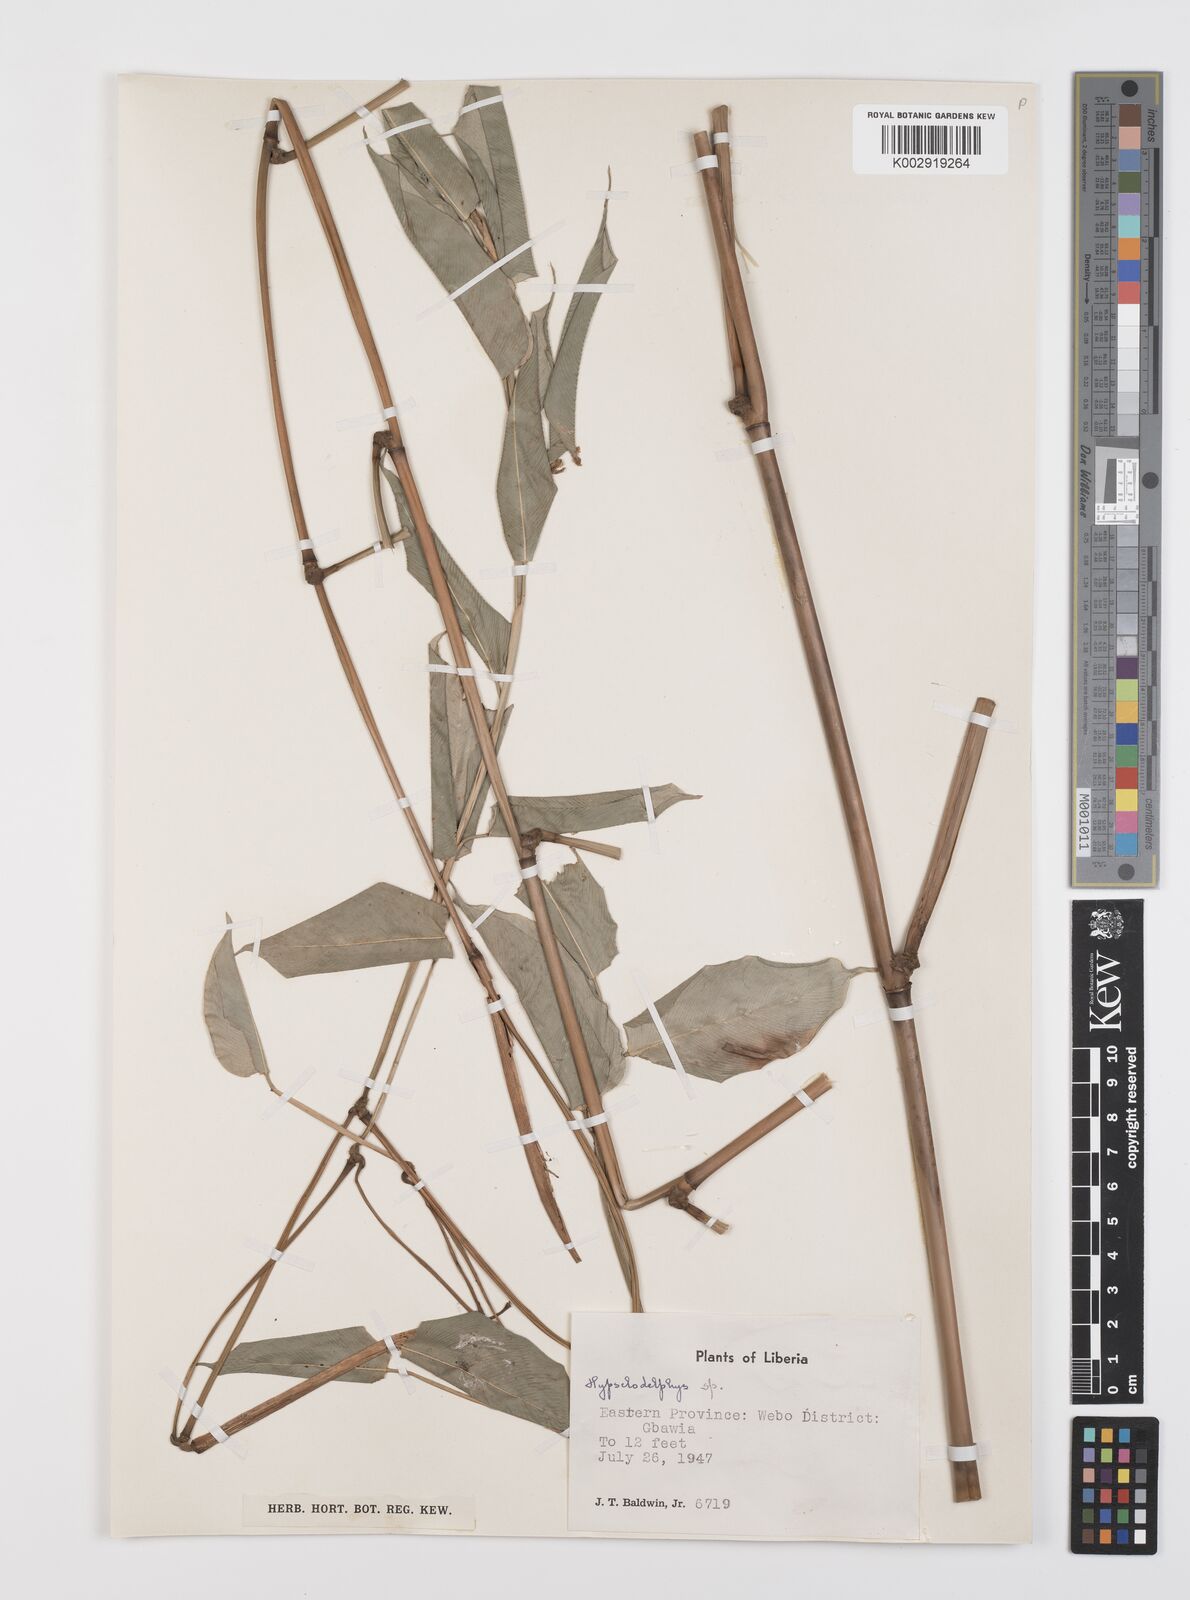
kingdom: Plantae
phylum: Tracheophyta
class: Liliopsida
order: Zingiberales
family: Marantaceae
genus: Hypselodelphys
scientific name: Hypselodelphys
